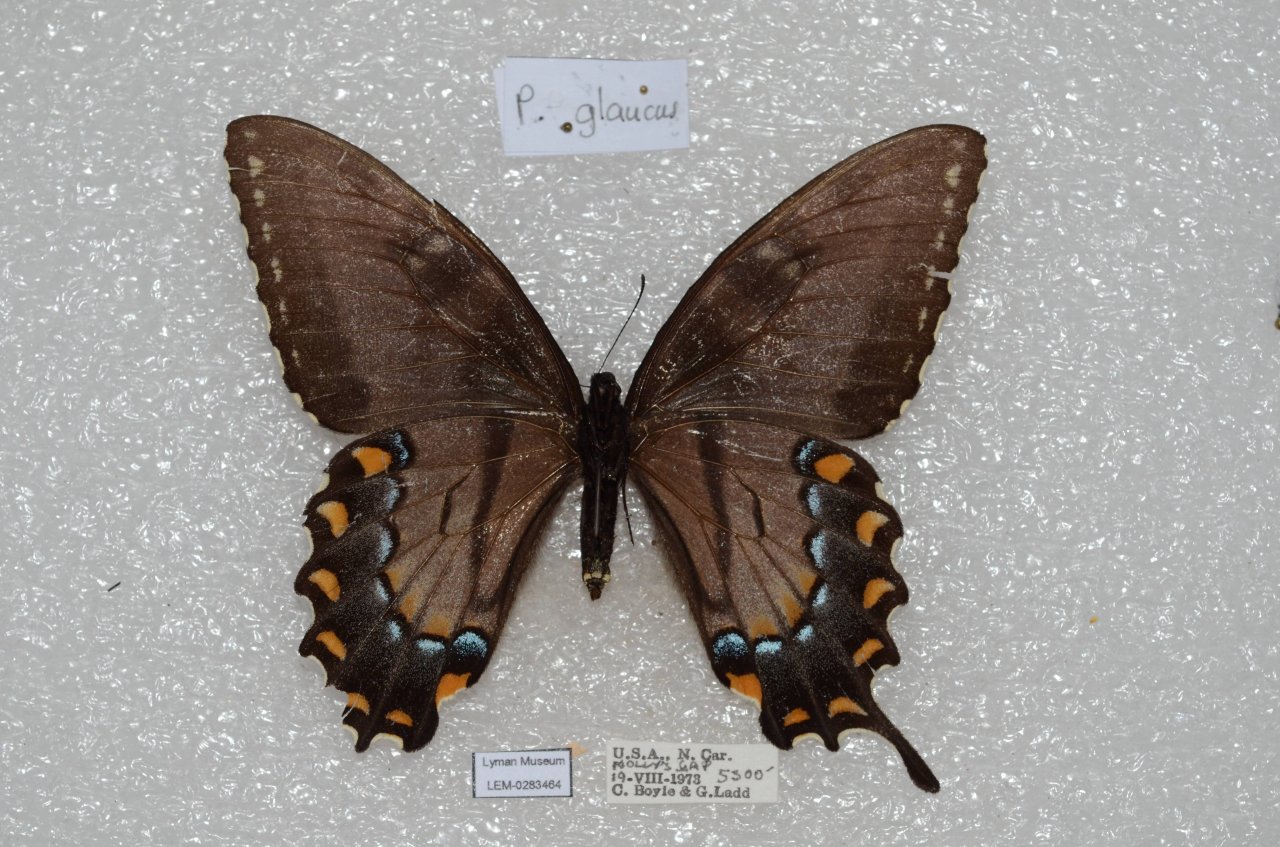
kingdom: Animalia
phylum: Arthropoda
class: Insecta
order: Lepidoptera
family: Papilionidae
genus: Pterourus
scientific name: Pterourus glaucus
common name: Eastern Tiger Swallowtail
